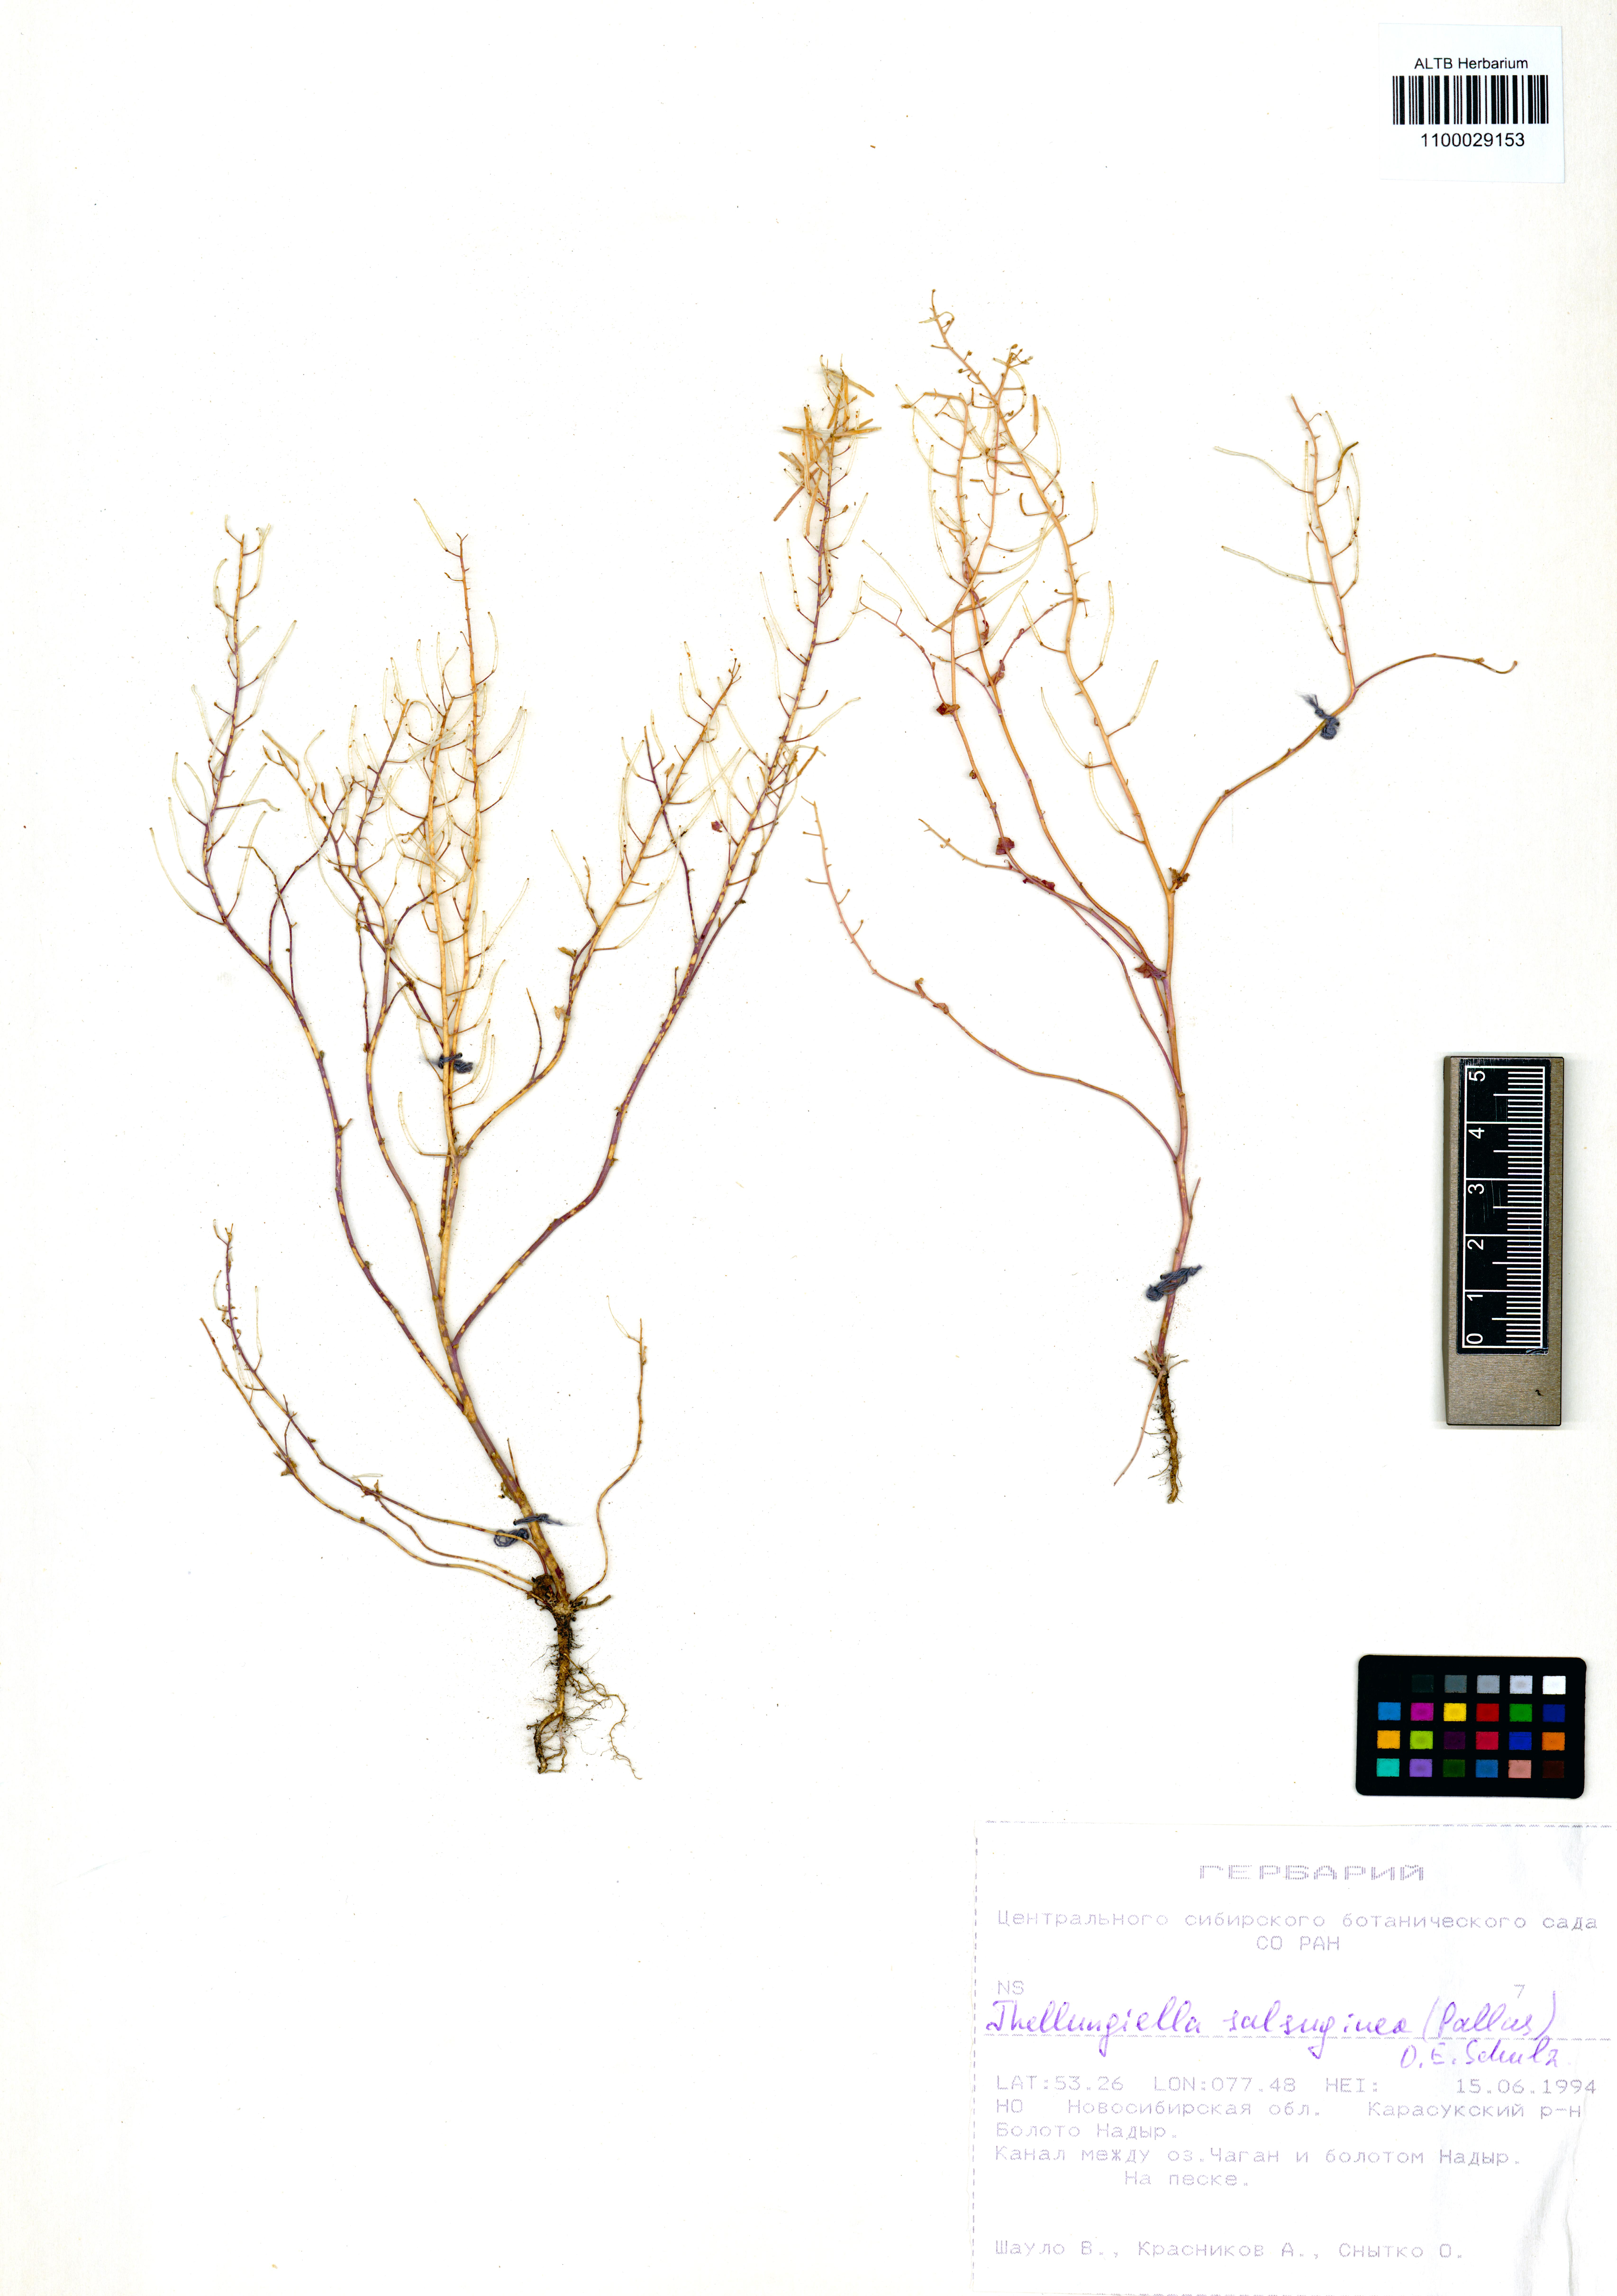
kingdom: Plantae
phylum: Tracheophyta
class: Magnoliopsida
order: Brassicales
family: Brassicaceae
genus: Eutrema
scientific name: Eutrema salsugineum
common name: Mouse-ear cress
